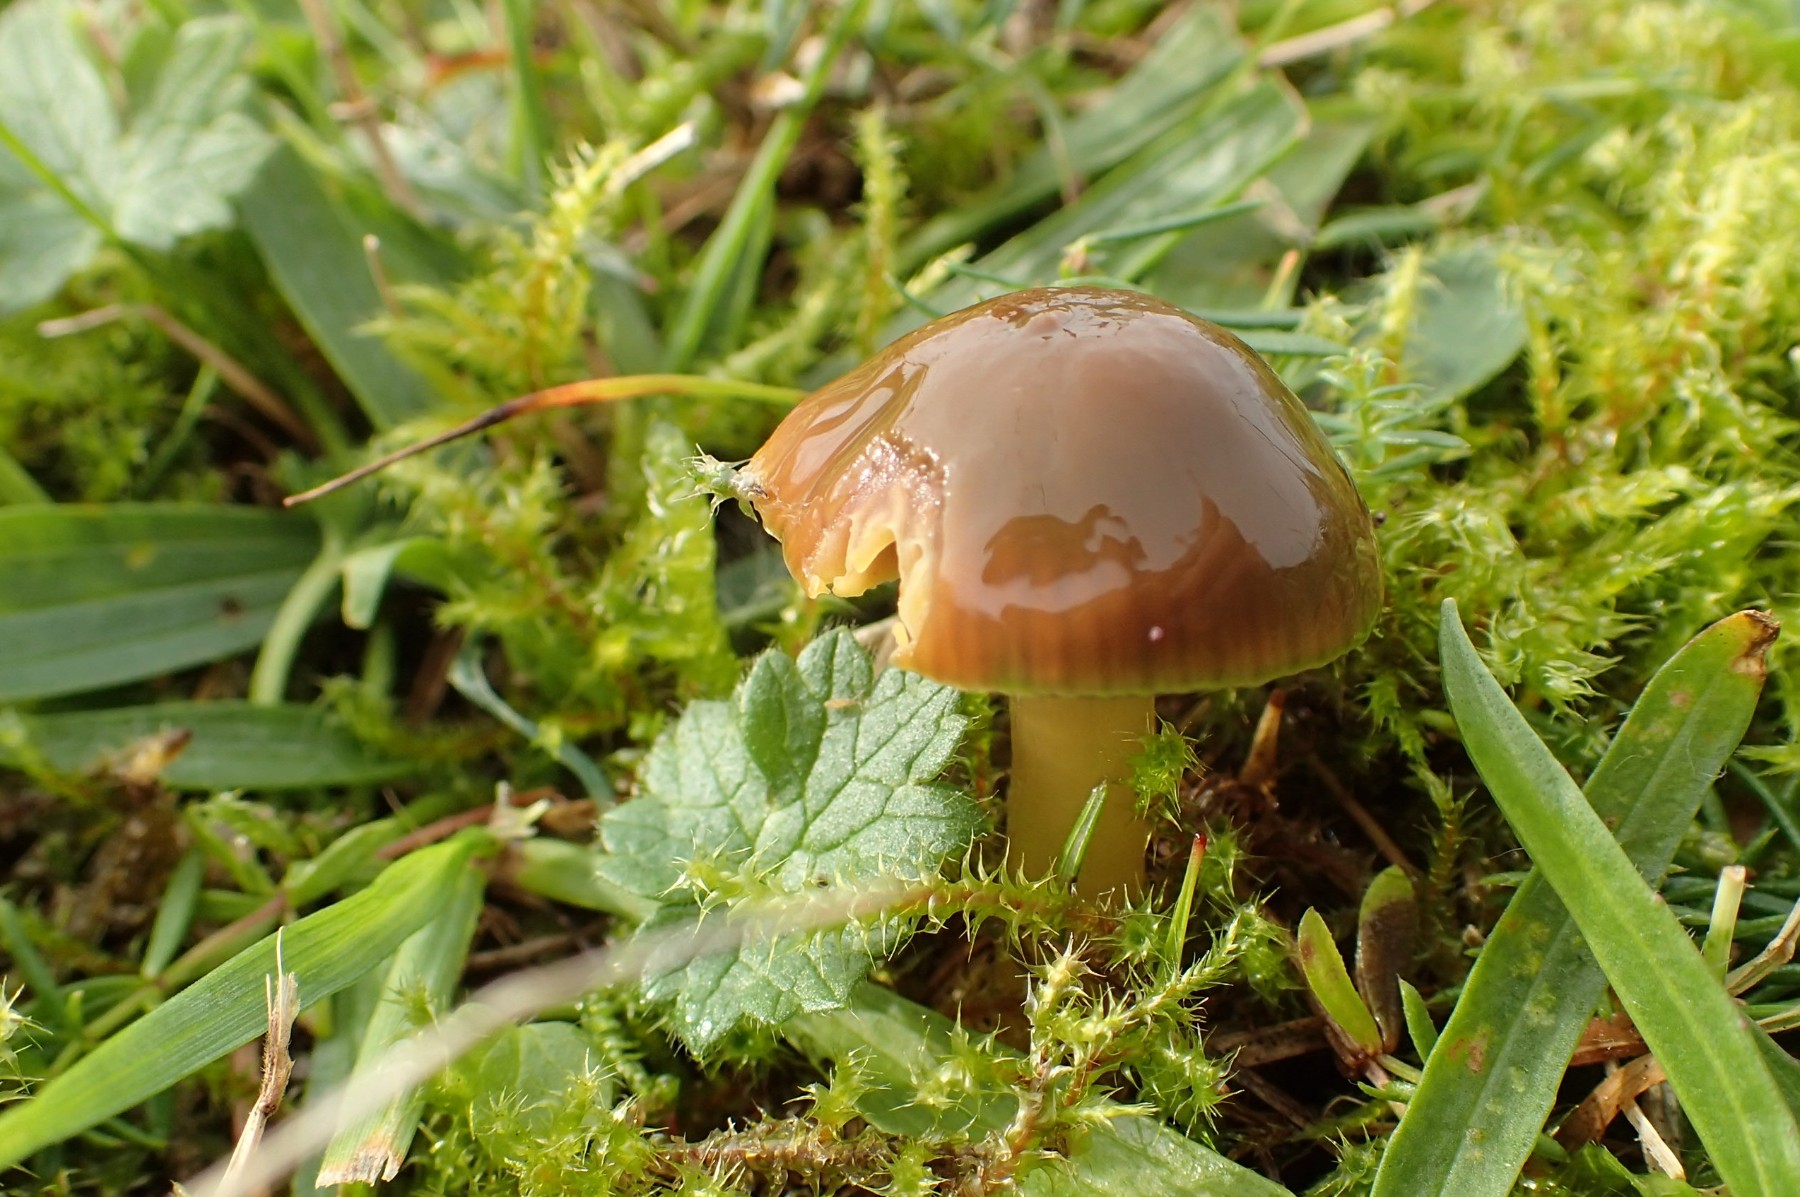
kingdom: Fungi
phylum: Basidiomycota
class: Agaricomycetes
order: Agaricales
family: Hygrophoraceae
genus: Gliophorus
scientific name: Gliophorus psittacinus
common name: papegøje-vokshat
